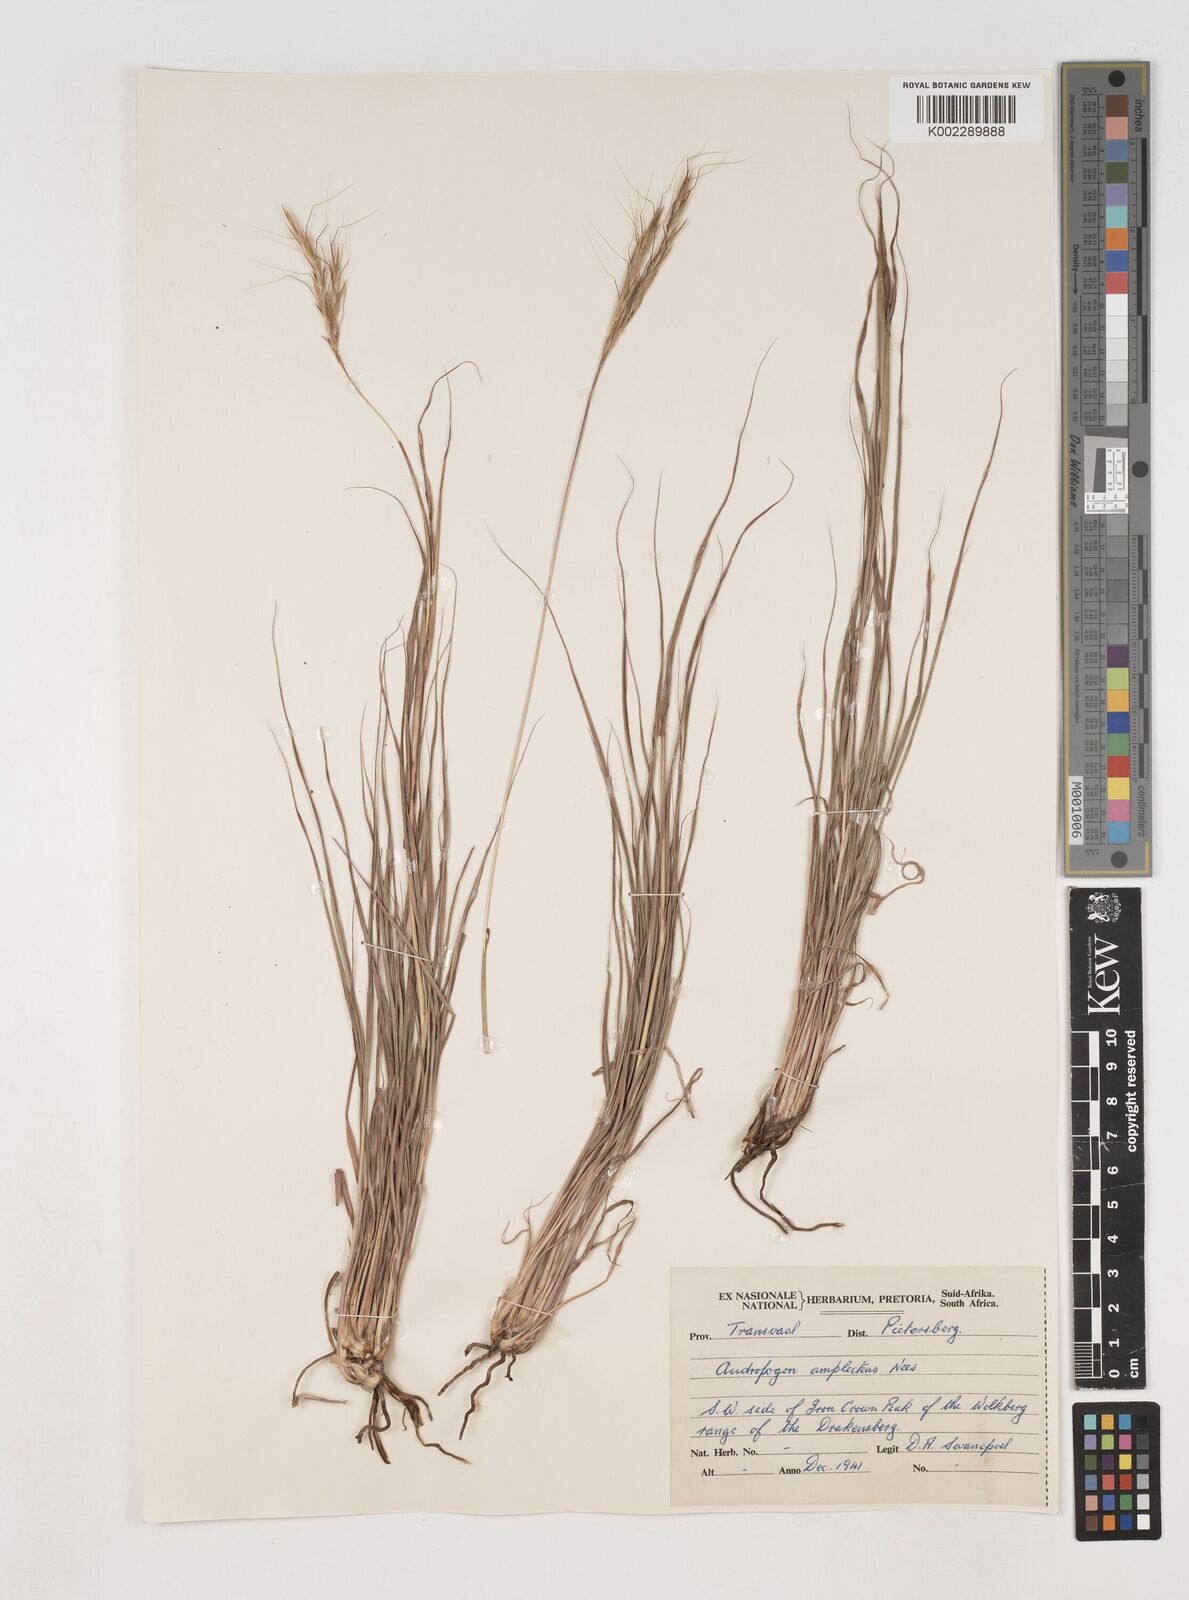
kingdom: Plantae
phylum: Tracheophyta
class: Liliopsida
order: Poales
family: Poaceae
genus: Diheteropogon
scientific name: Diheteropogon amplectens
